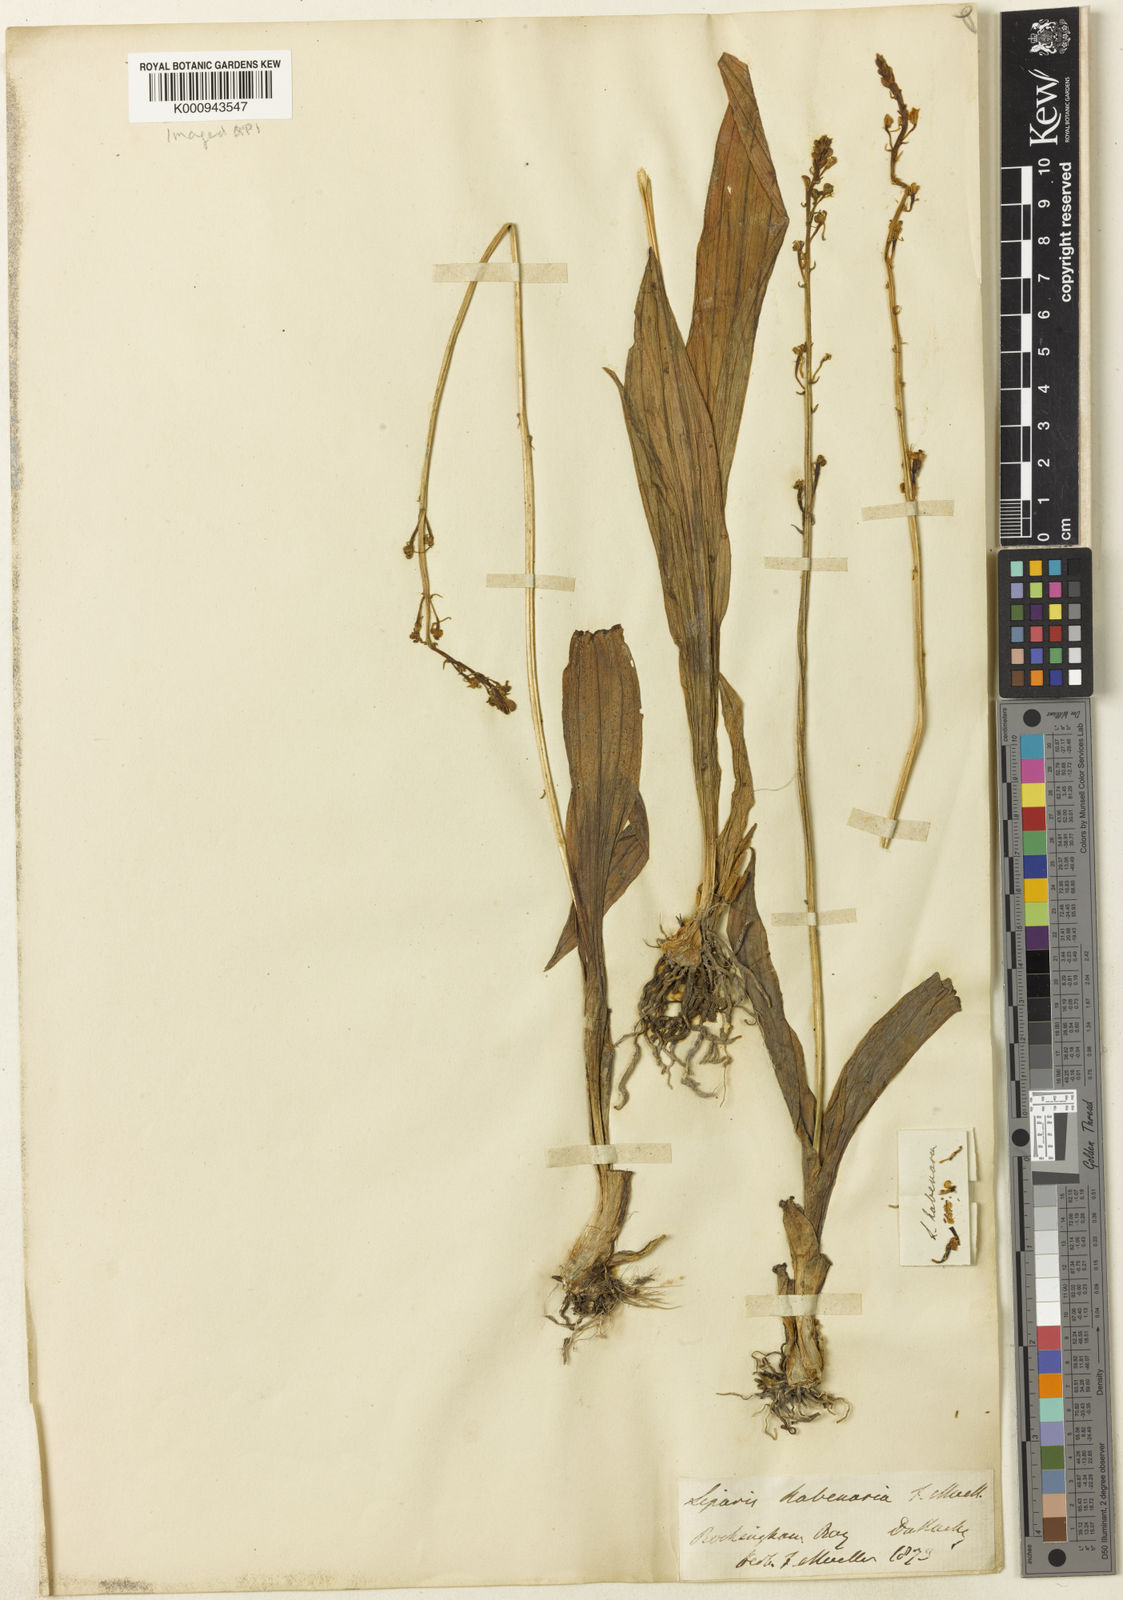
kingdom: Plantae
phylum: Tracheophyta
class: Liliopsida
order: Asparagales
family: Orchidaceae
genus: Liparis
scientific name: Liparis habenarina
